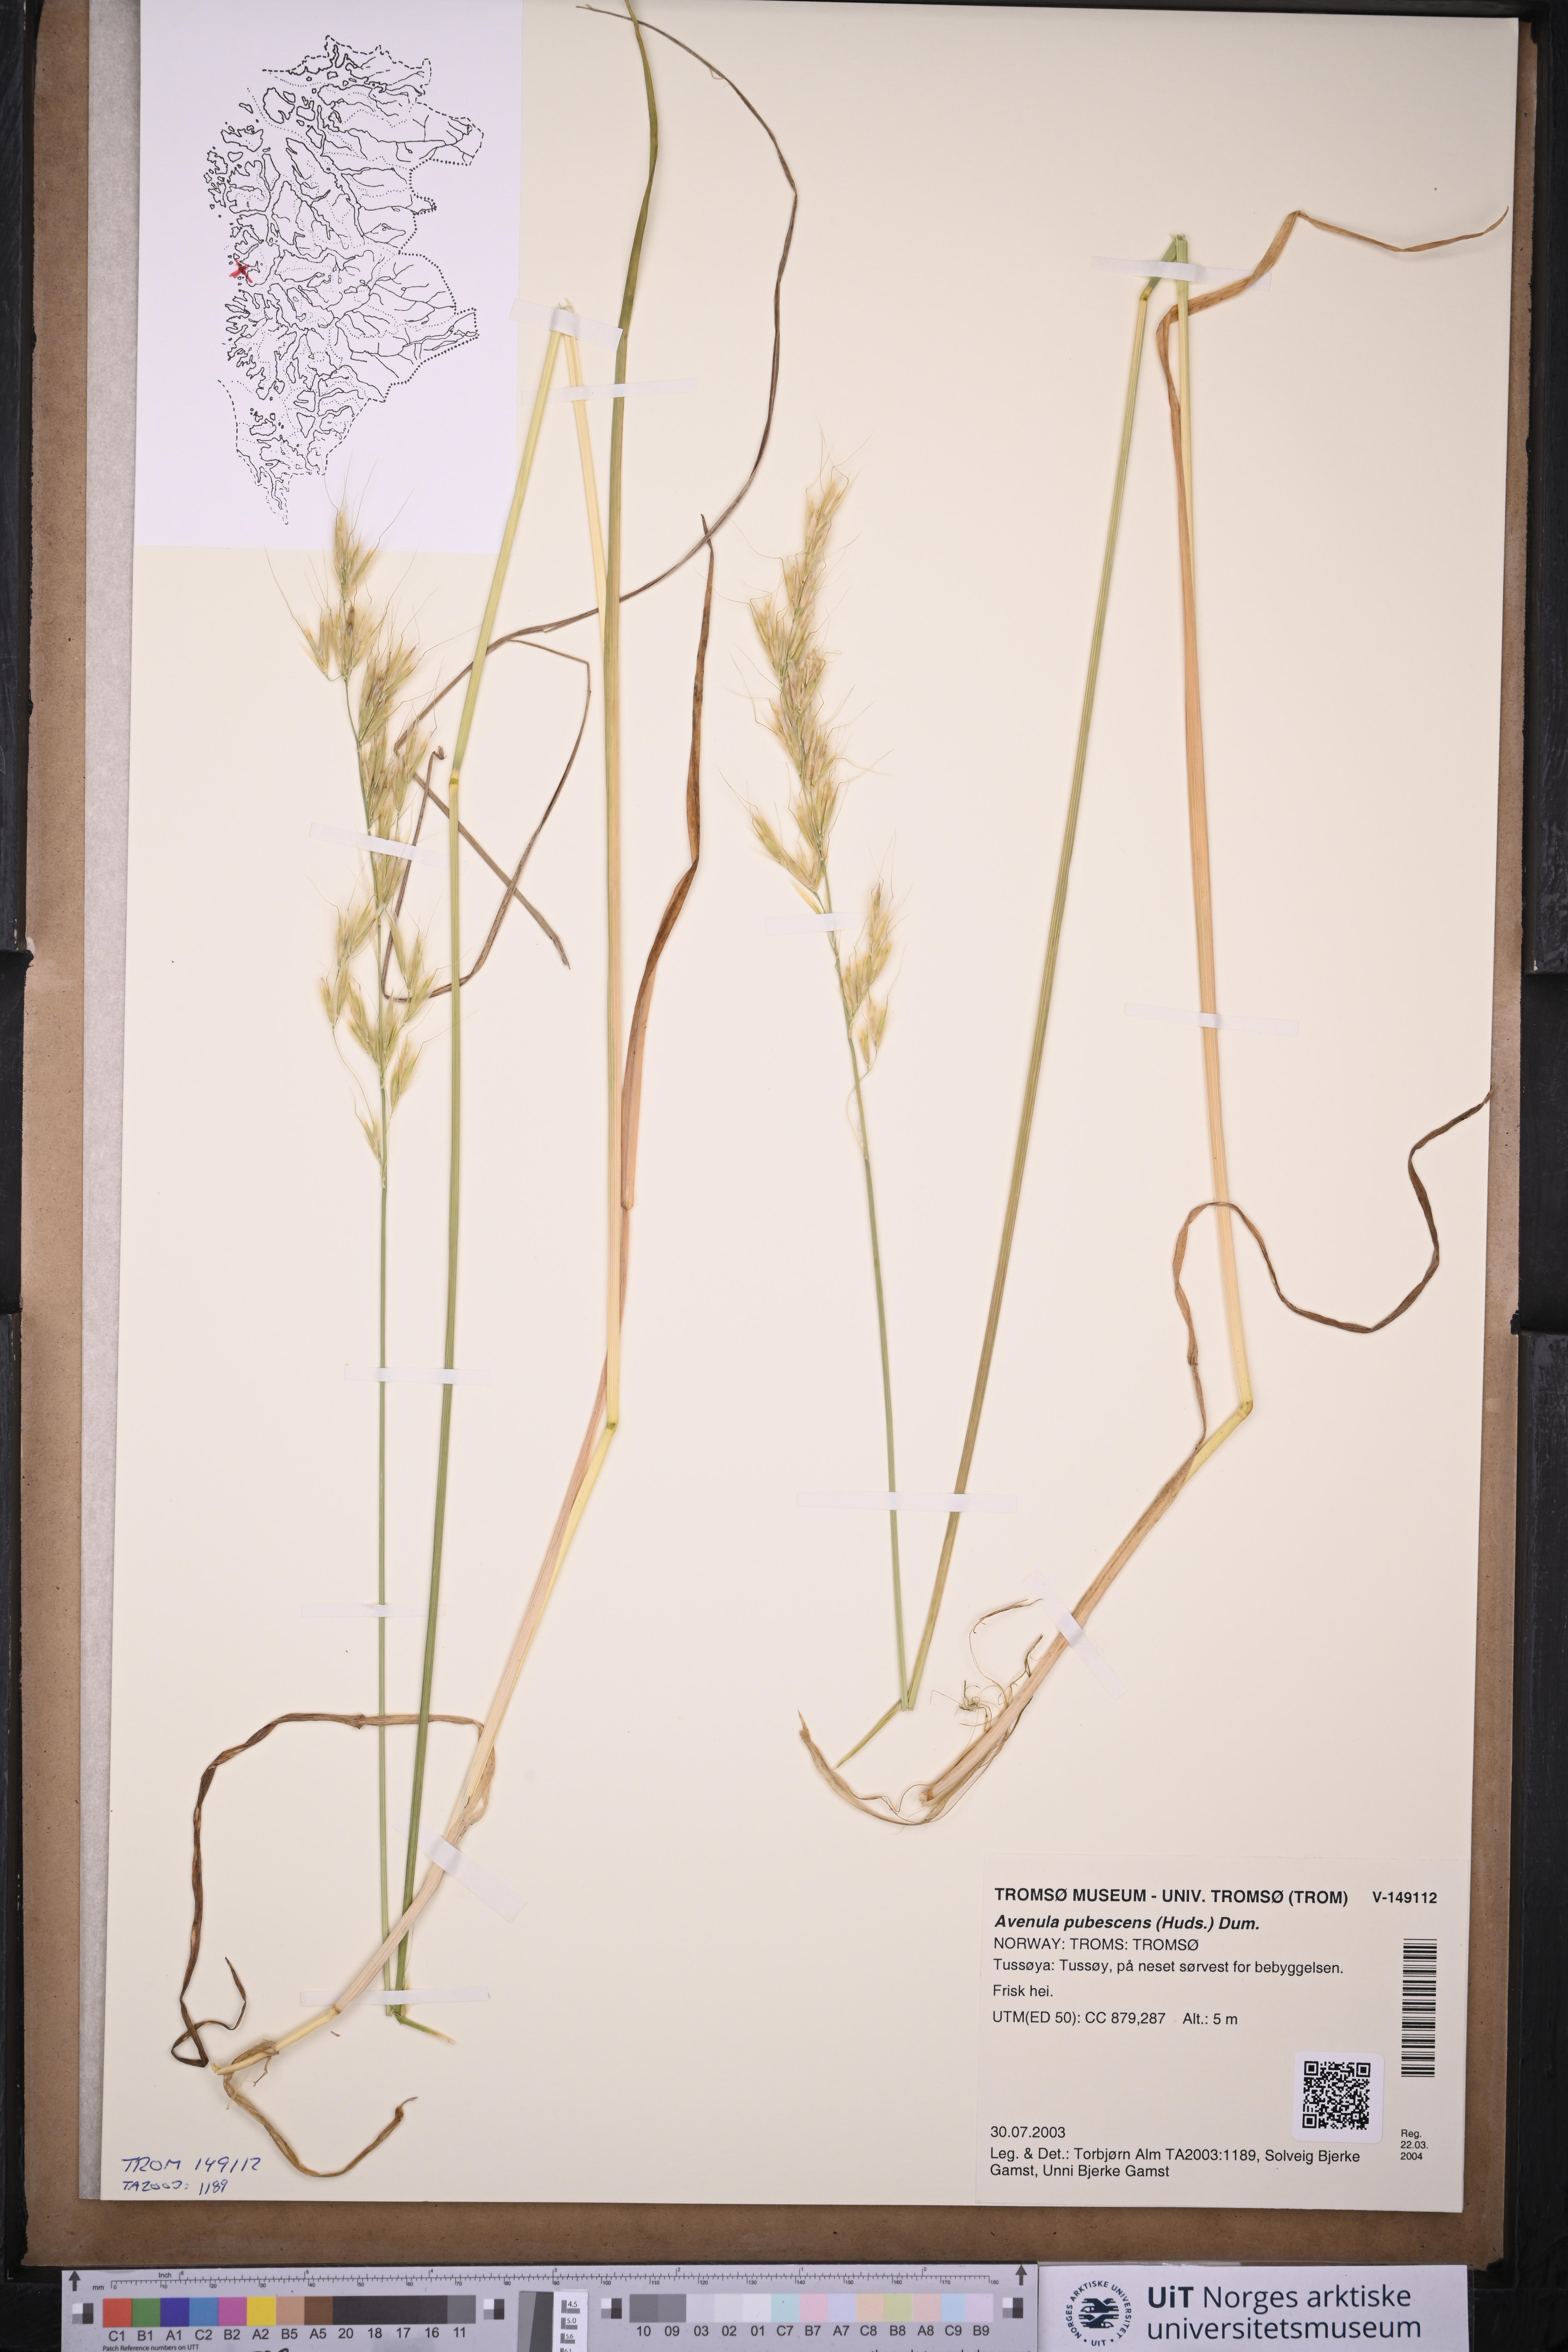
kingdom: Plantae
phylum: Tracheophyta
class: Liliopsida
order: Poales
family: Poaceae
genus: Avenula
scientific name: Avenula pubescens
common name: Downy alpine oatgrass
